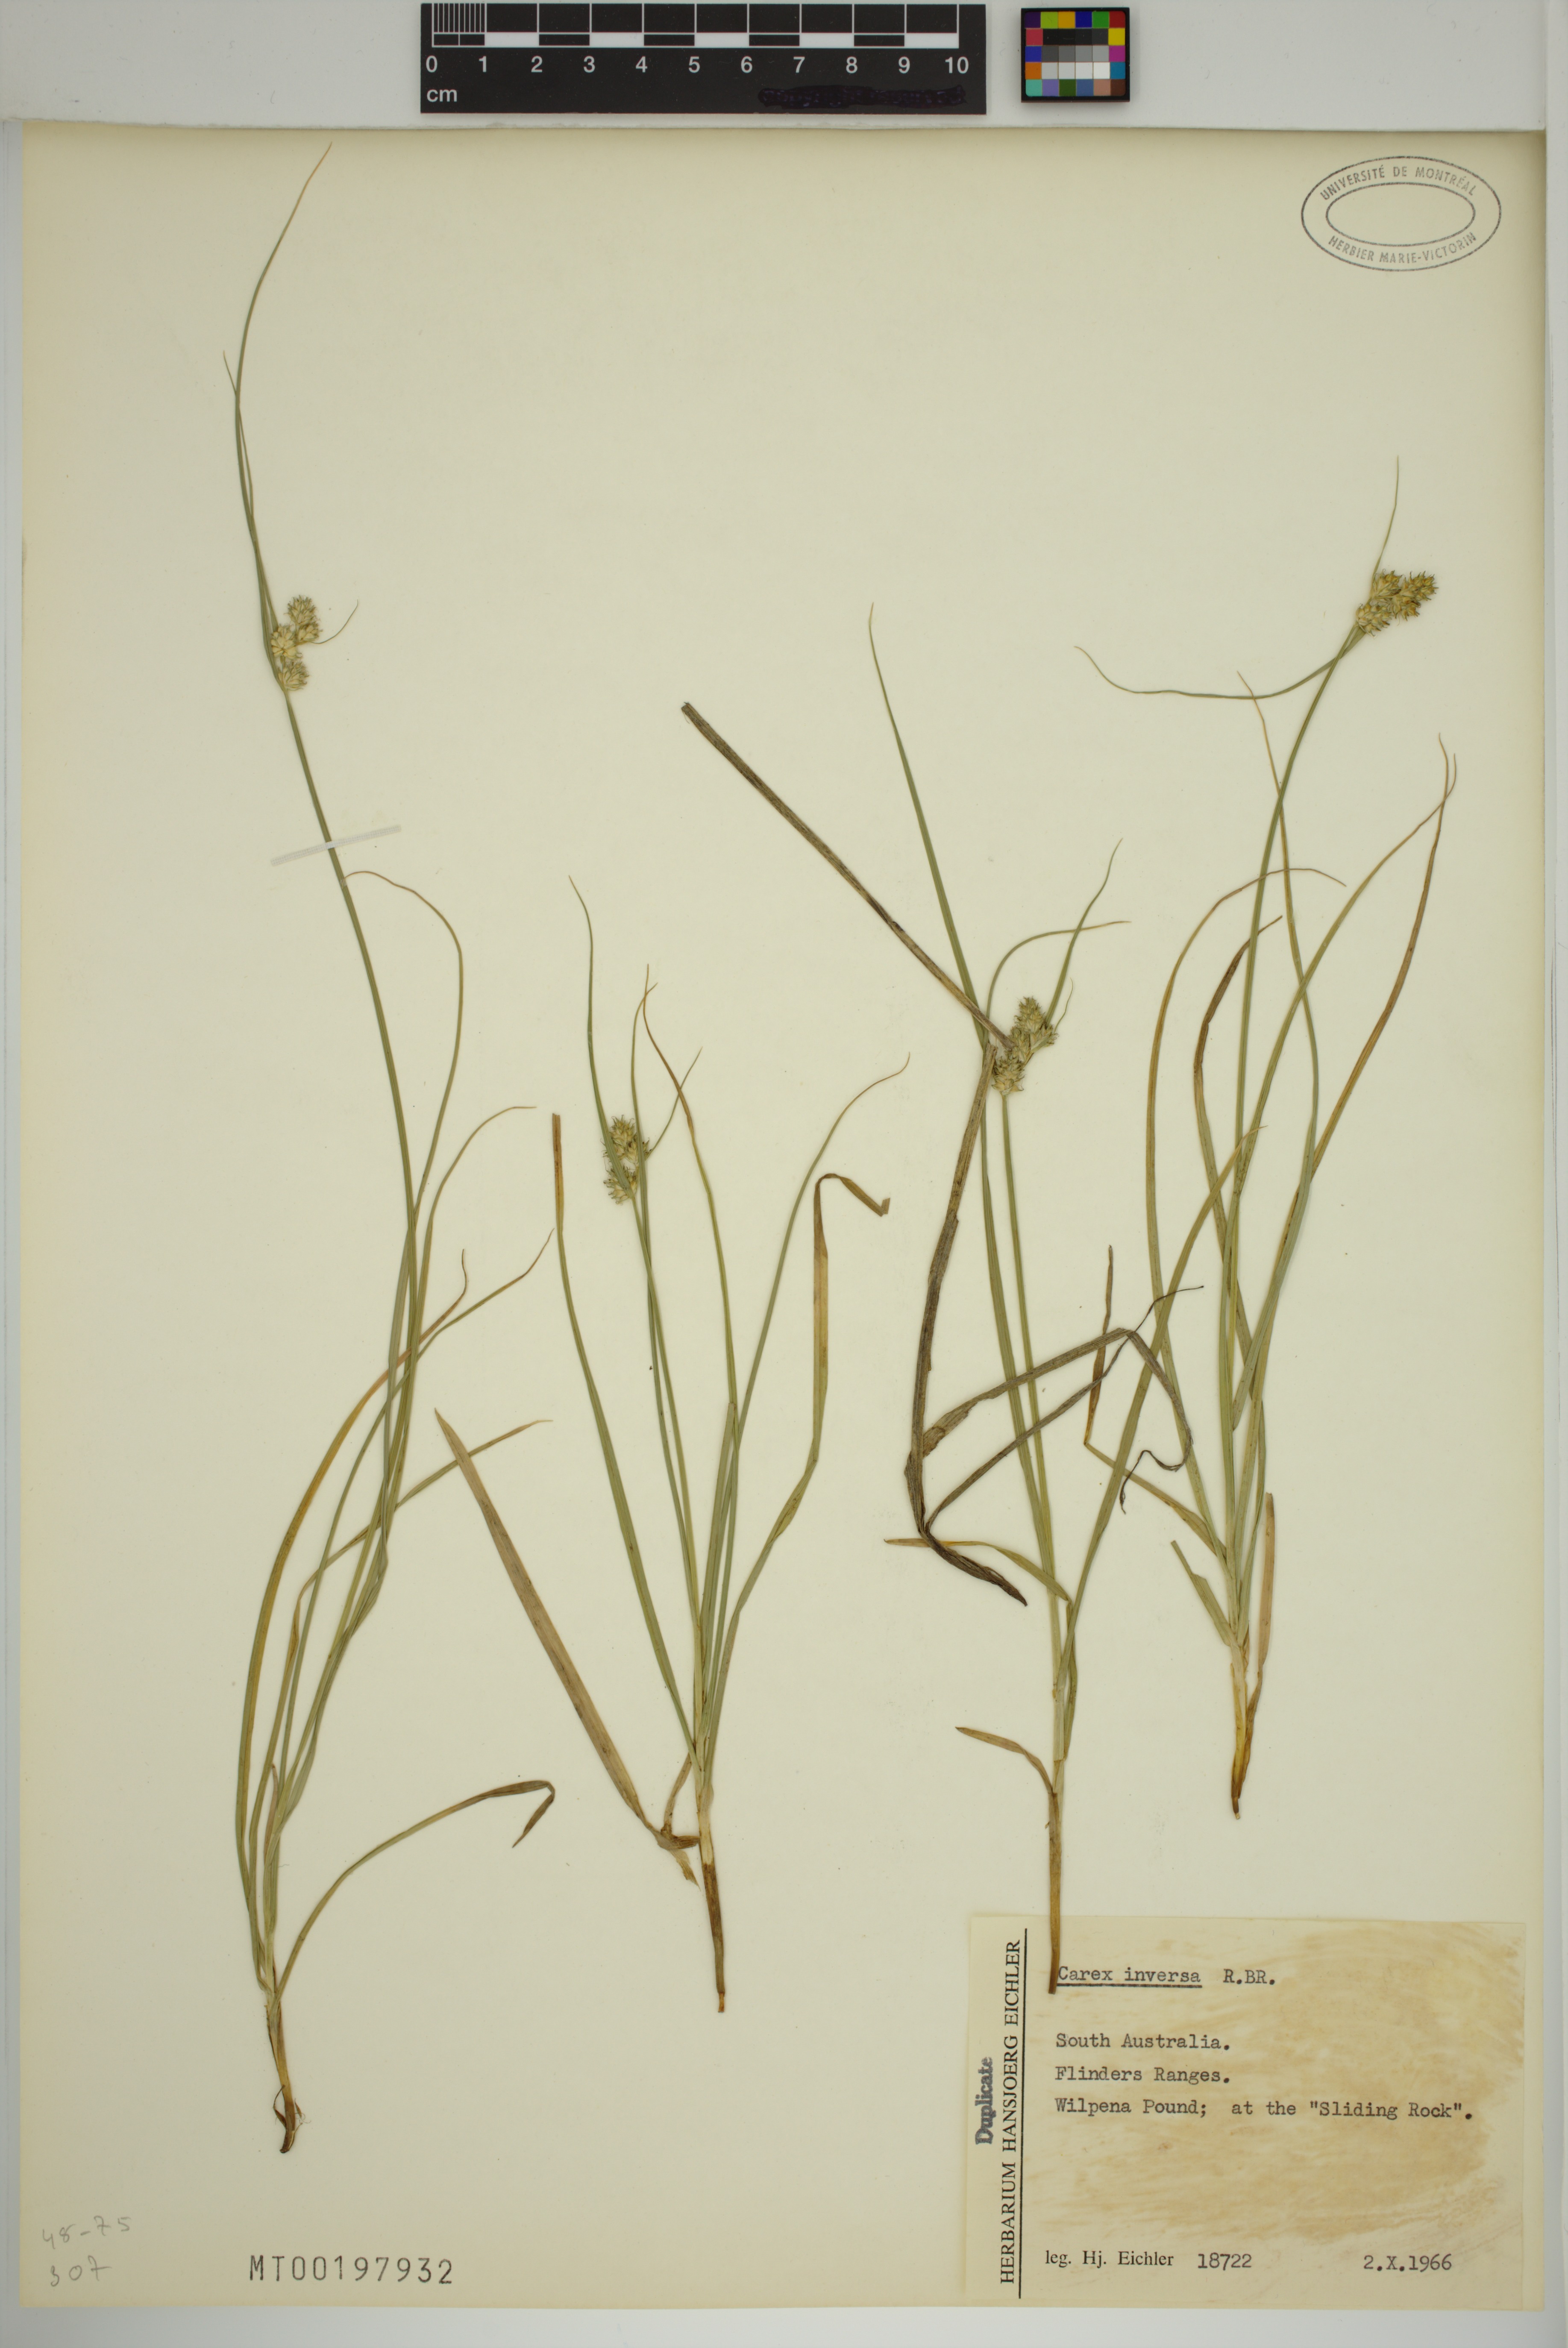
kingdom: Plantae
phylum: Tracheophyta
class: Liliopsida
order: Poales
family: Cyperaceae
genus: Carex
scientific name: Carex inversa
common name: Knob sedge
